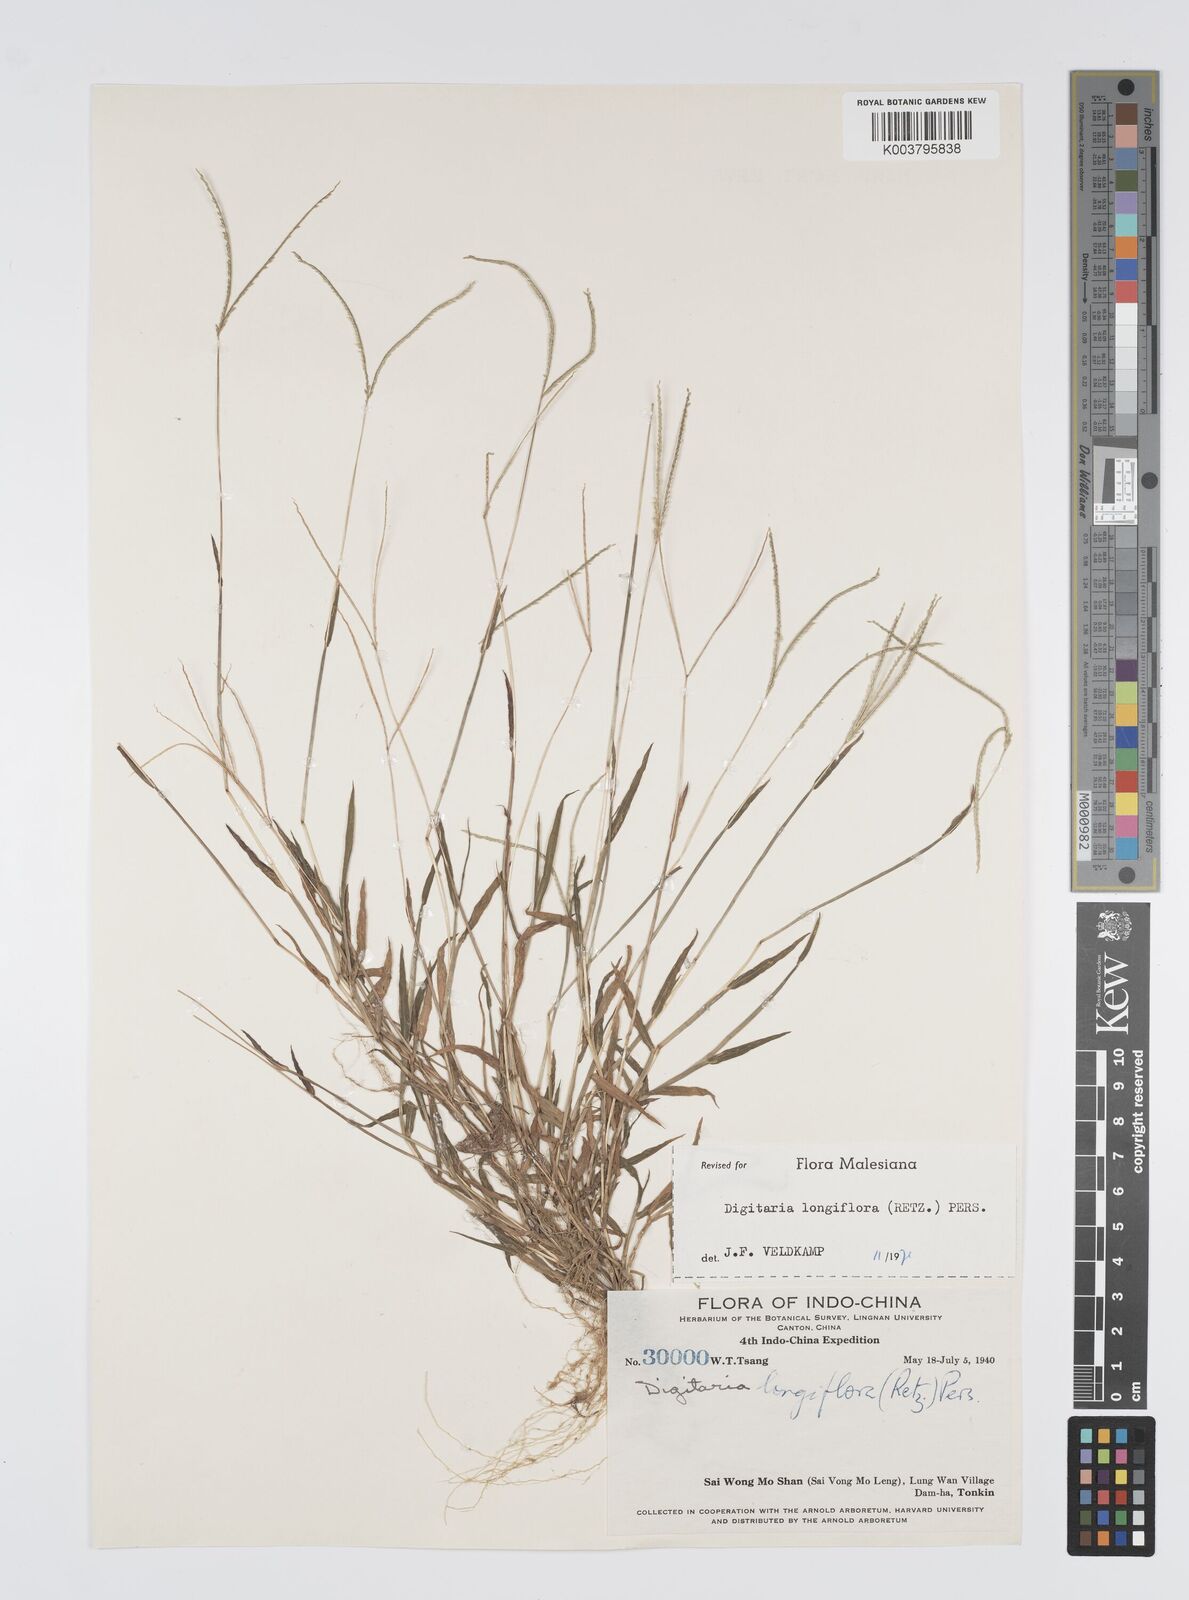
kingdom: Plantae
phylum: Tracheophyta
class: Liliopsida
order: Poales
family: Poaceae
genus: Digitaria
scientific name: Digitaria longiflora
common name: Wire crabgrass
